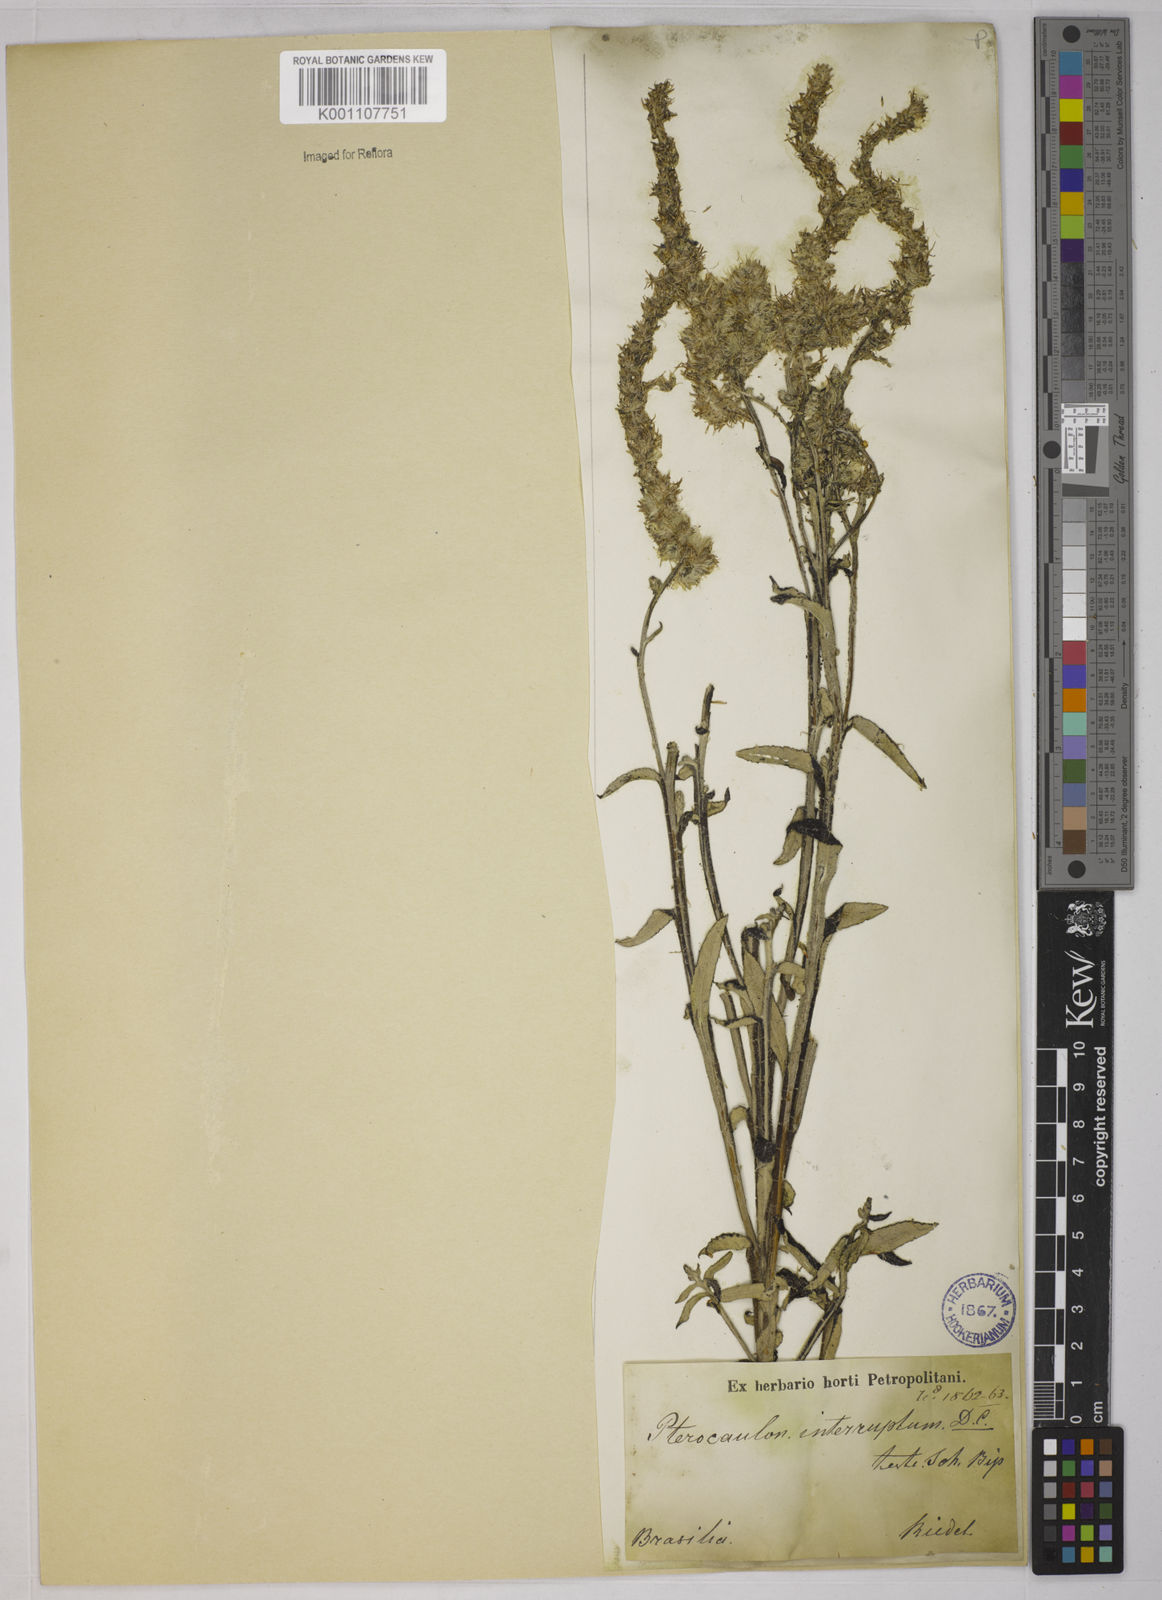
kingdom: Plantae
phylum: Tracheophyta
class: Magnoliopsida
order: Asterales
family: Asteraceae
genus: Pterocaulon
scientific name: Pterocaulon alopecuroides
